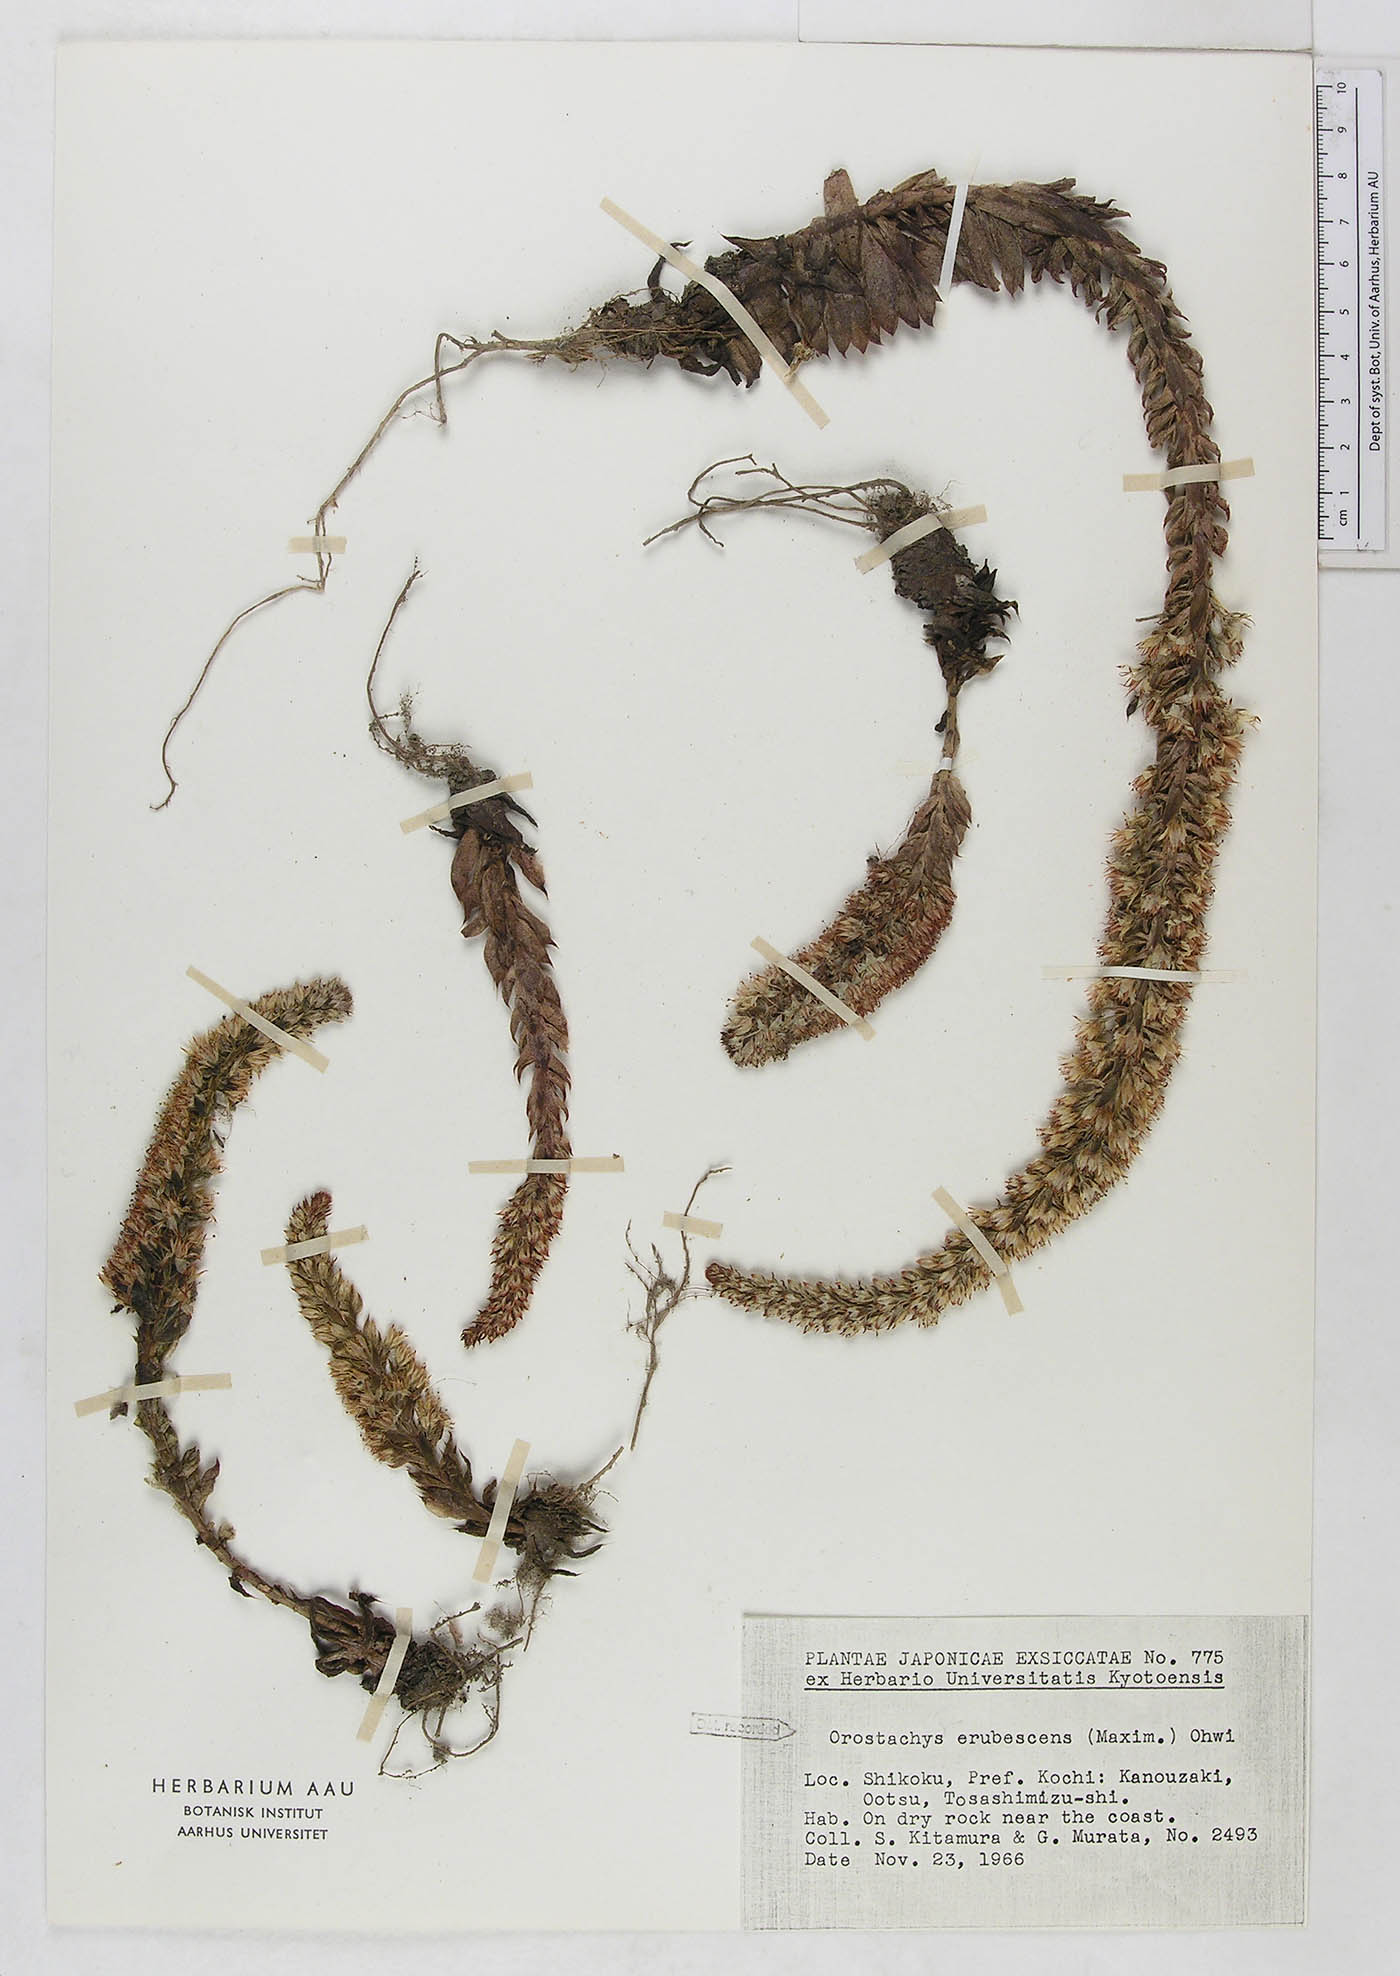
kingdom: Plantae
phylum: Tracheophyta
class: Magnoliopsida
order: Saxifragales
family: Crassulaceae
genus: Orostachys
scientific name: Orostachys spinosa
